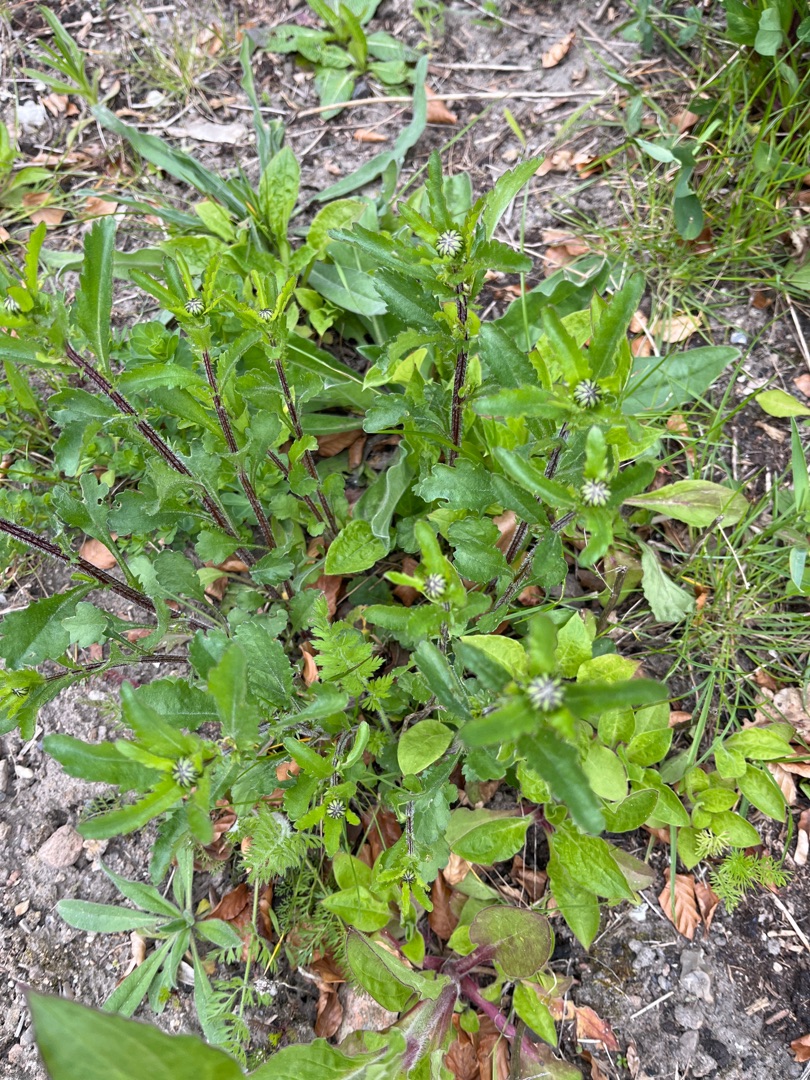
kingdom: Plantae
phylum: Tracheophyta
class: Magnoliopsida
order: Asterales
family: Asteraceae
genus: Leucanthemum
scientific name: Leucanthemum vulgare
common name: Hvid okseøje
